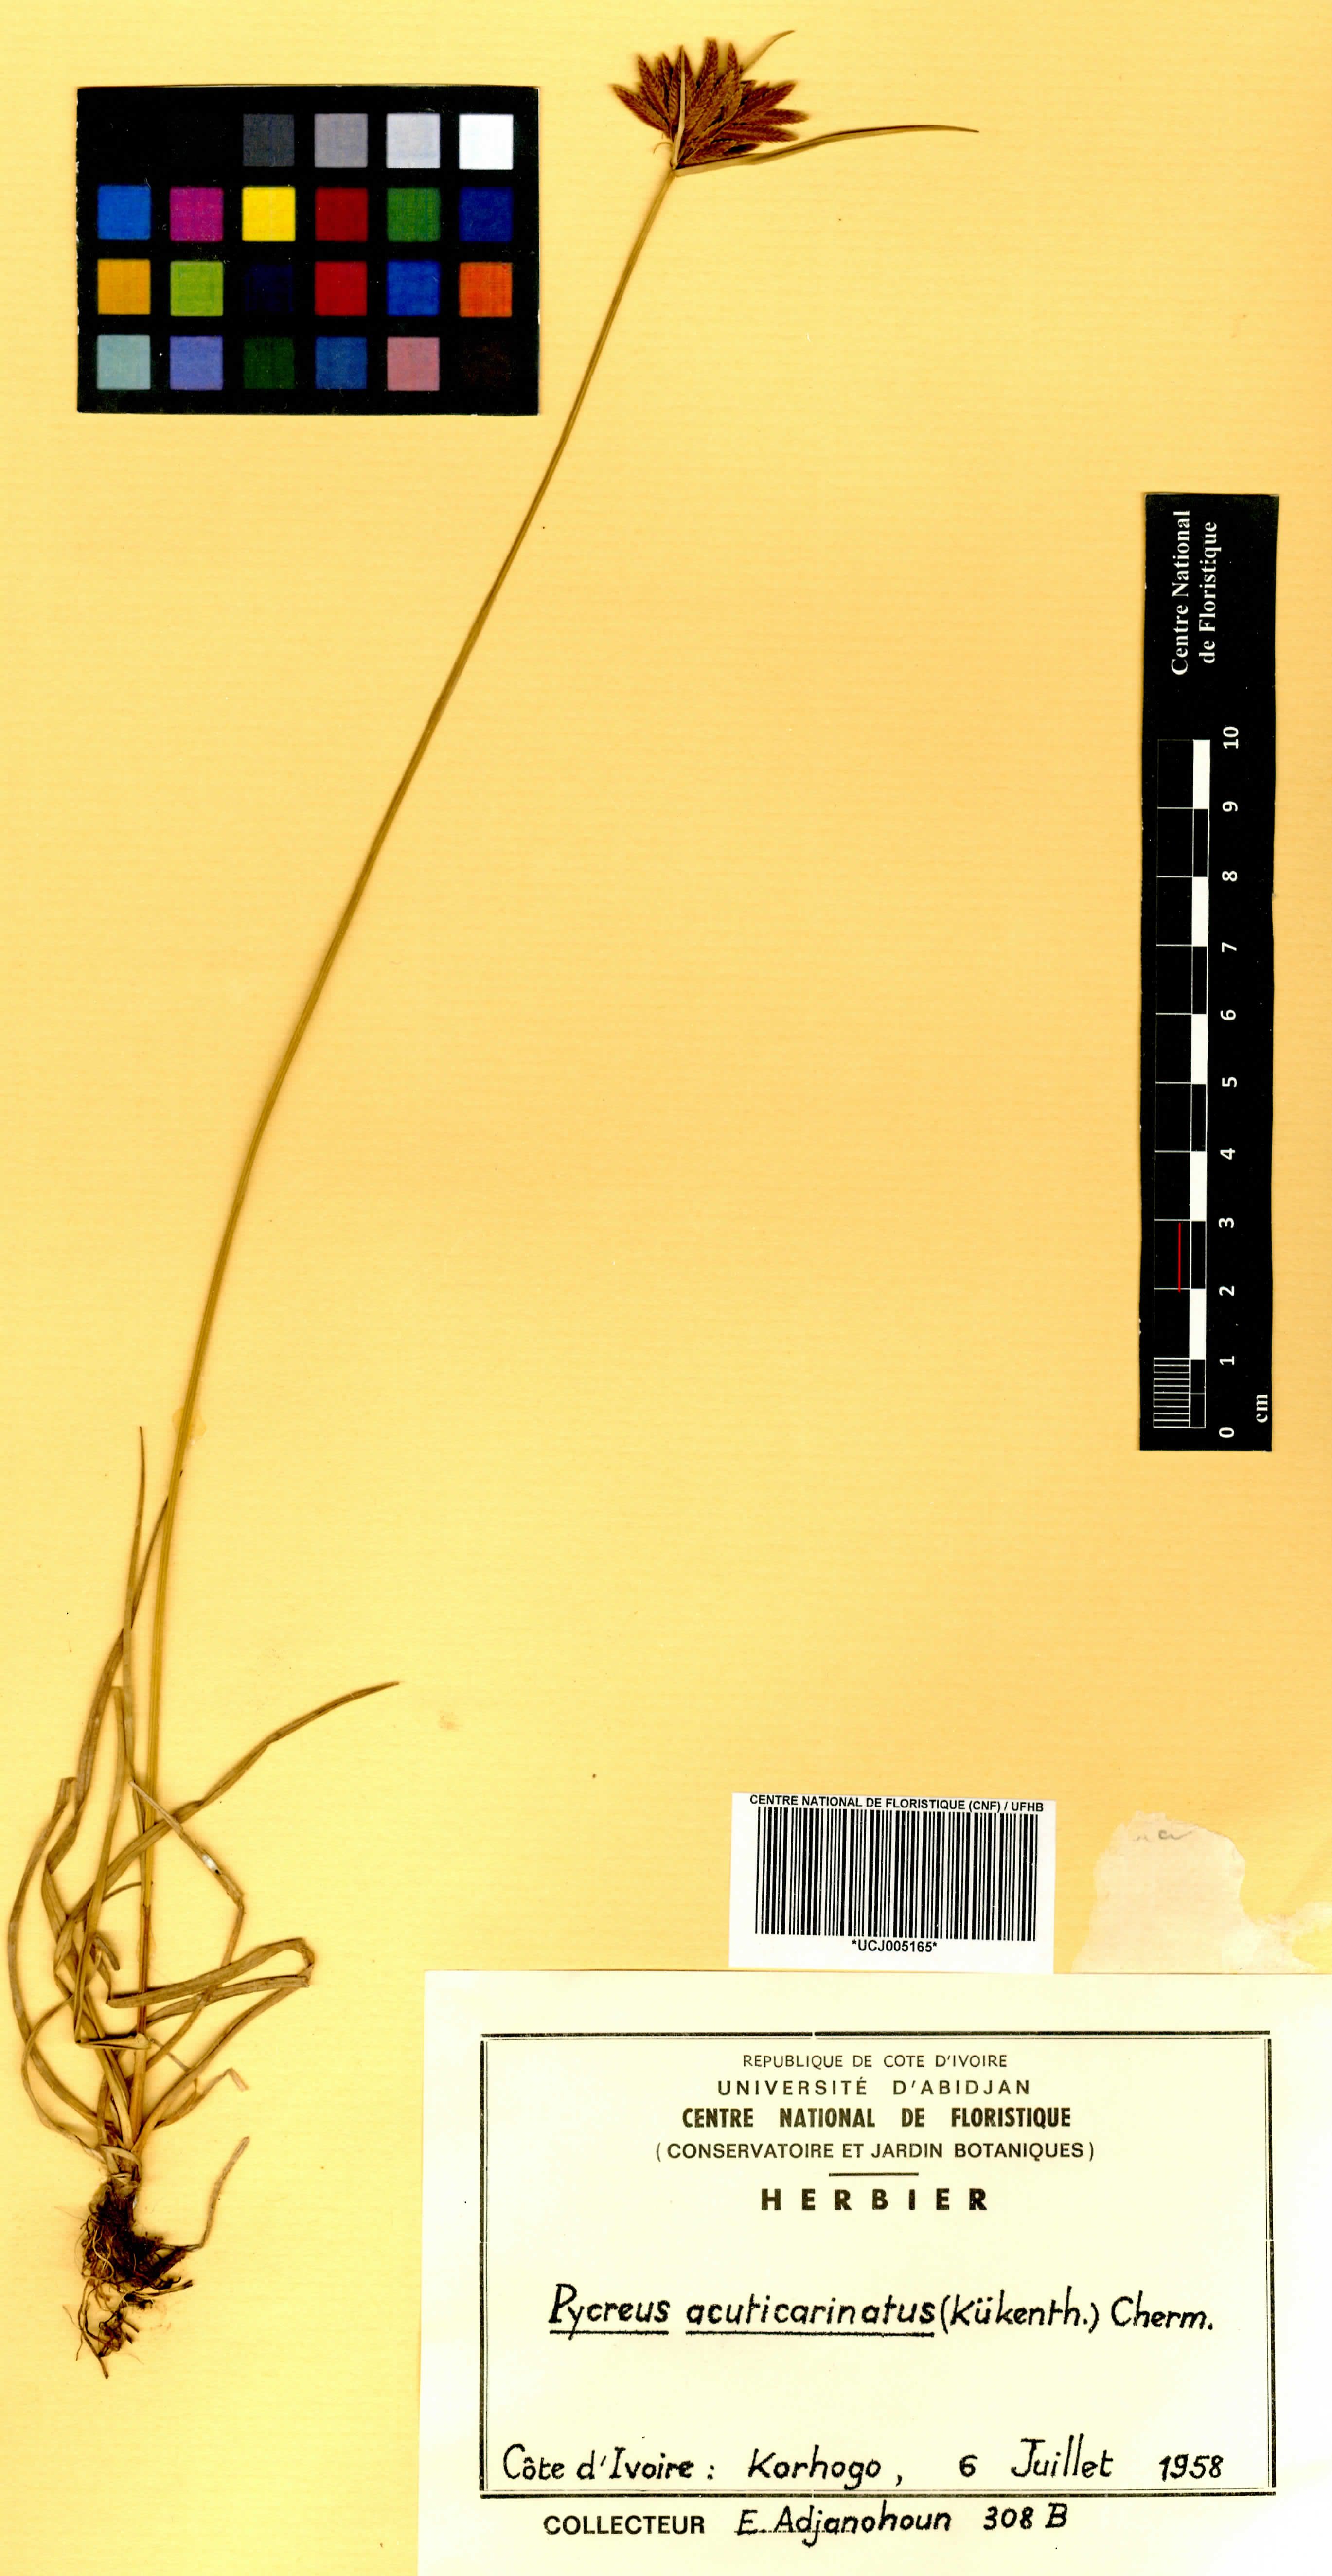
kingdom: Plantae
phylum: Tracheophyta
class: Liliopsida
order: Poales
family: Cyperaceae
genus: Cyperus
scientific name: Cyperus acuticarinatus
